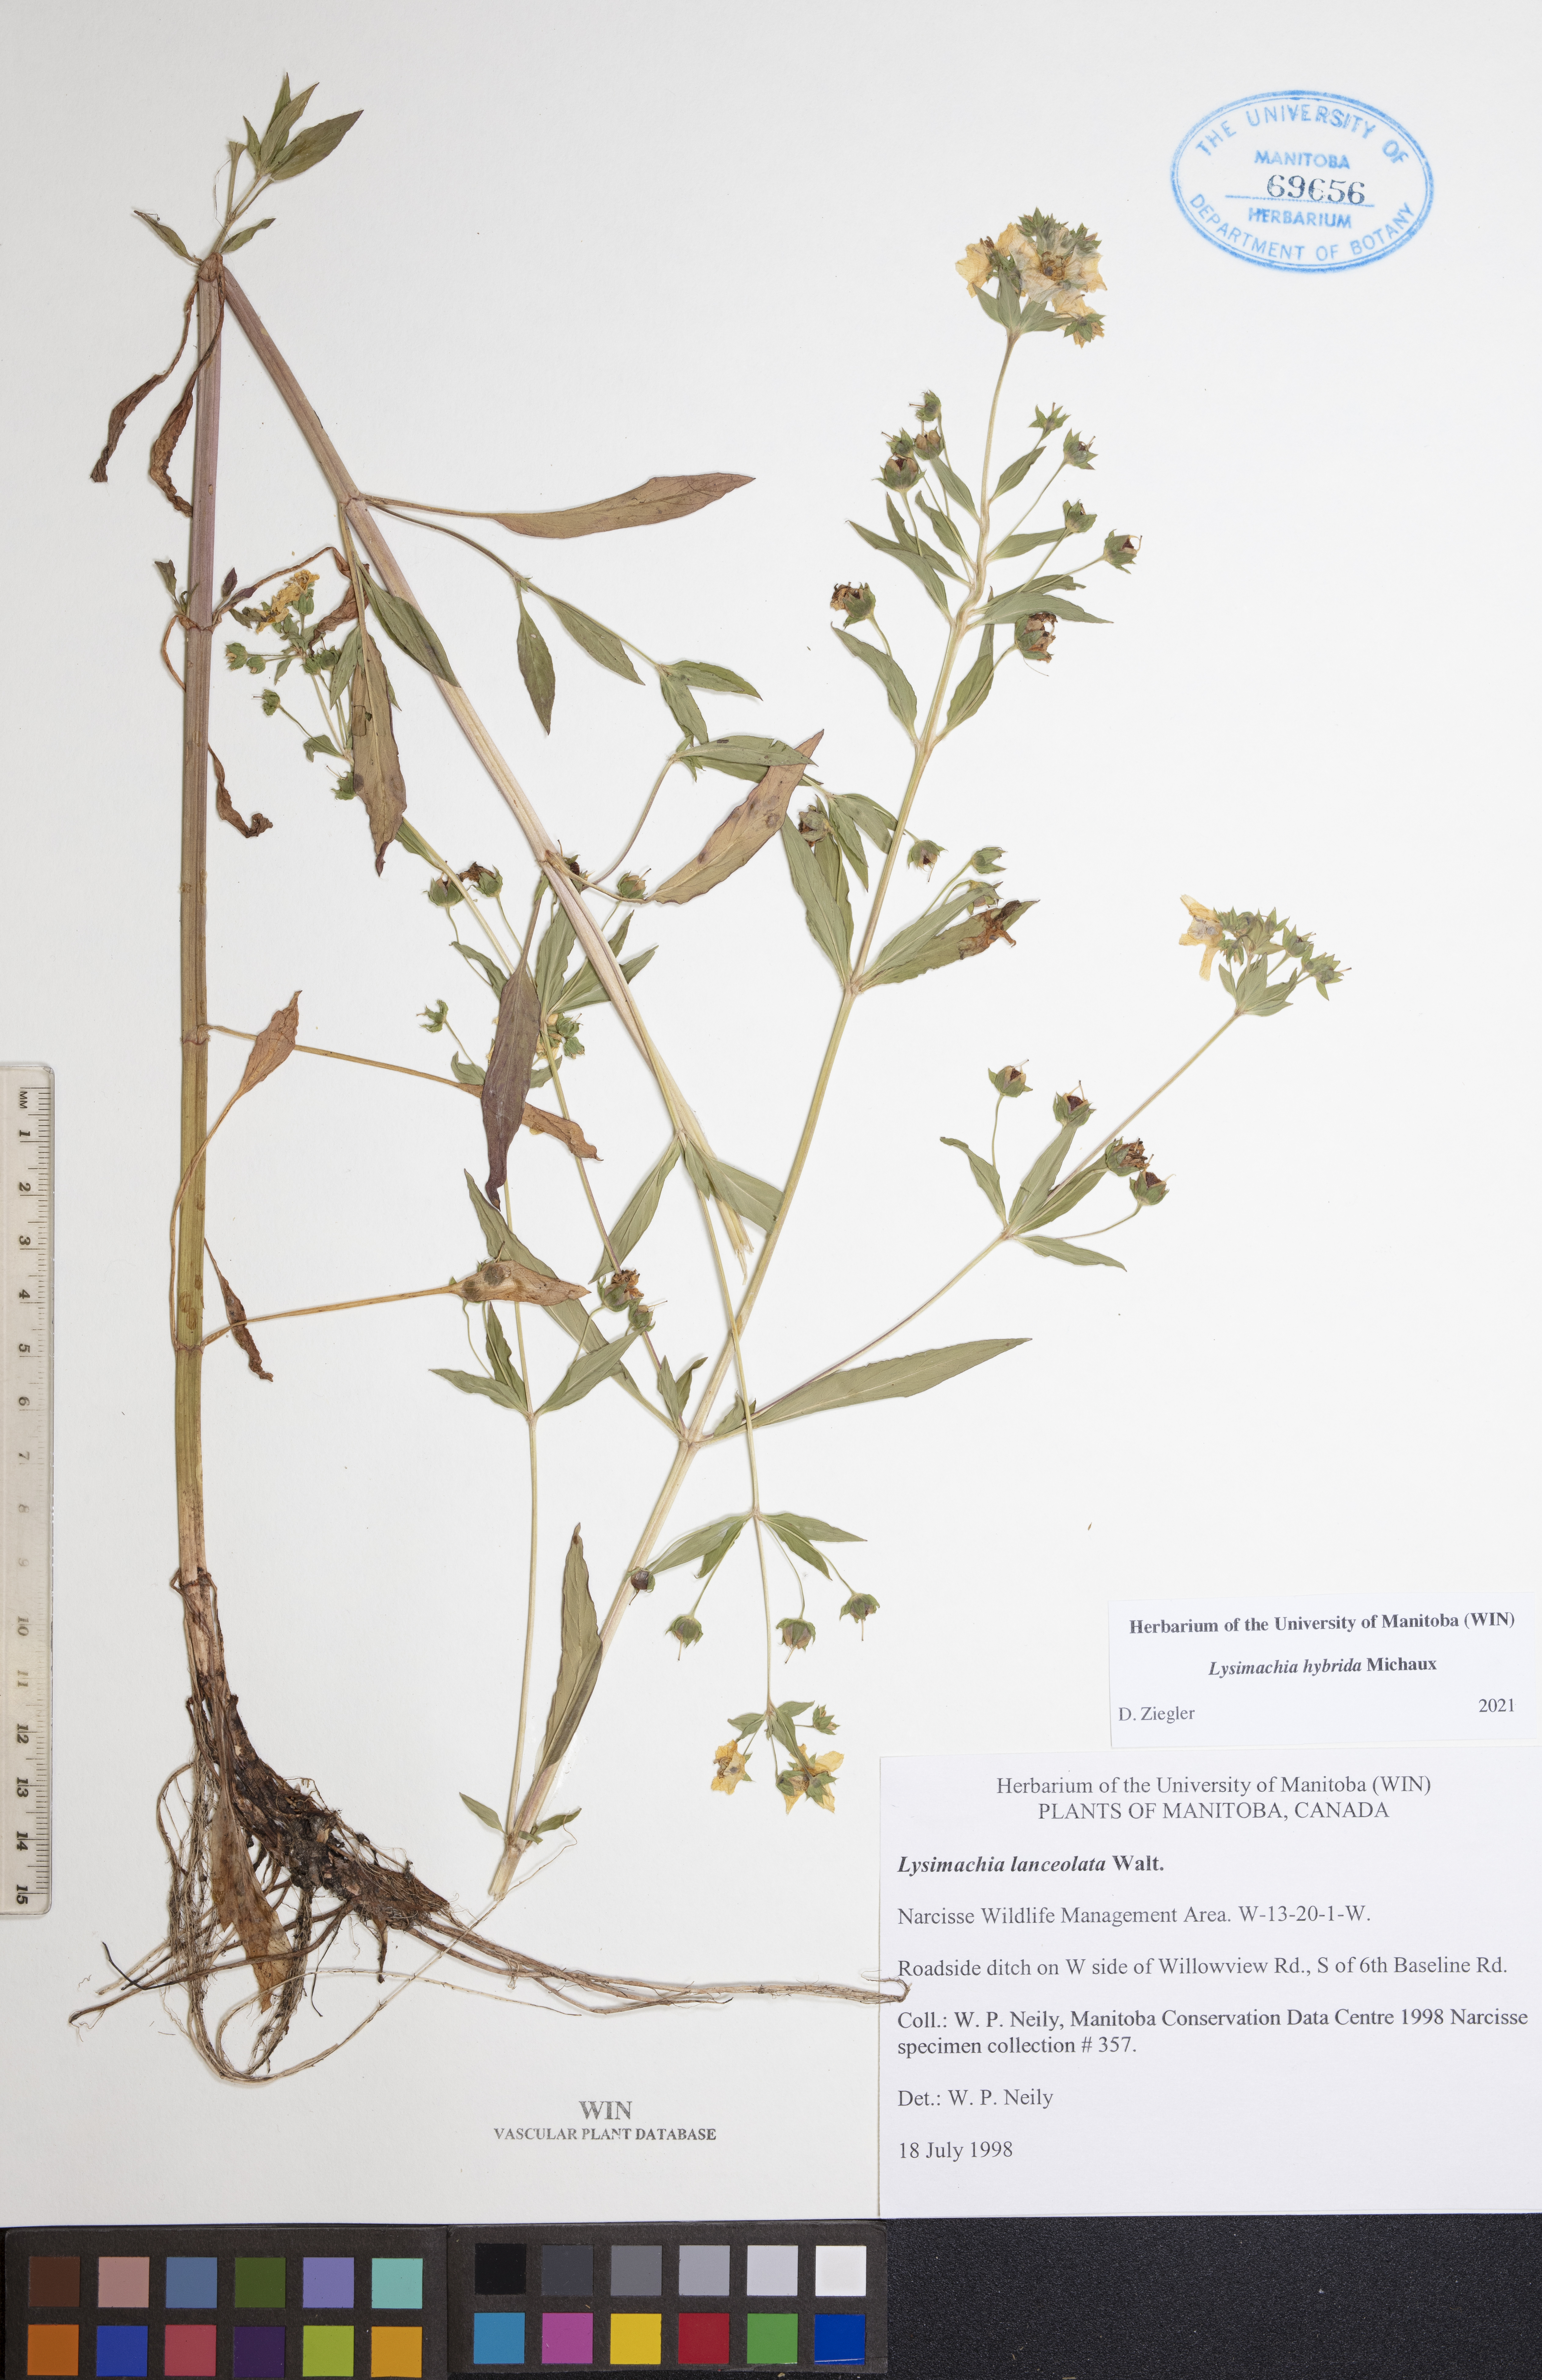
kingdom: Plantae
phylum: Tracheophyta
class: Magnoliopsida
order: Ericales
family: Primulaceae
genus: Lysimachia
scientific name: Lysimachia hybrida
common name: Lowland loosestrife
